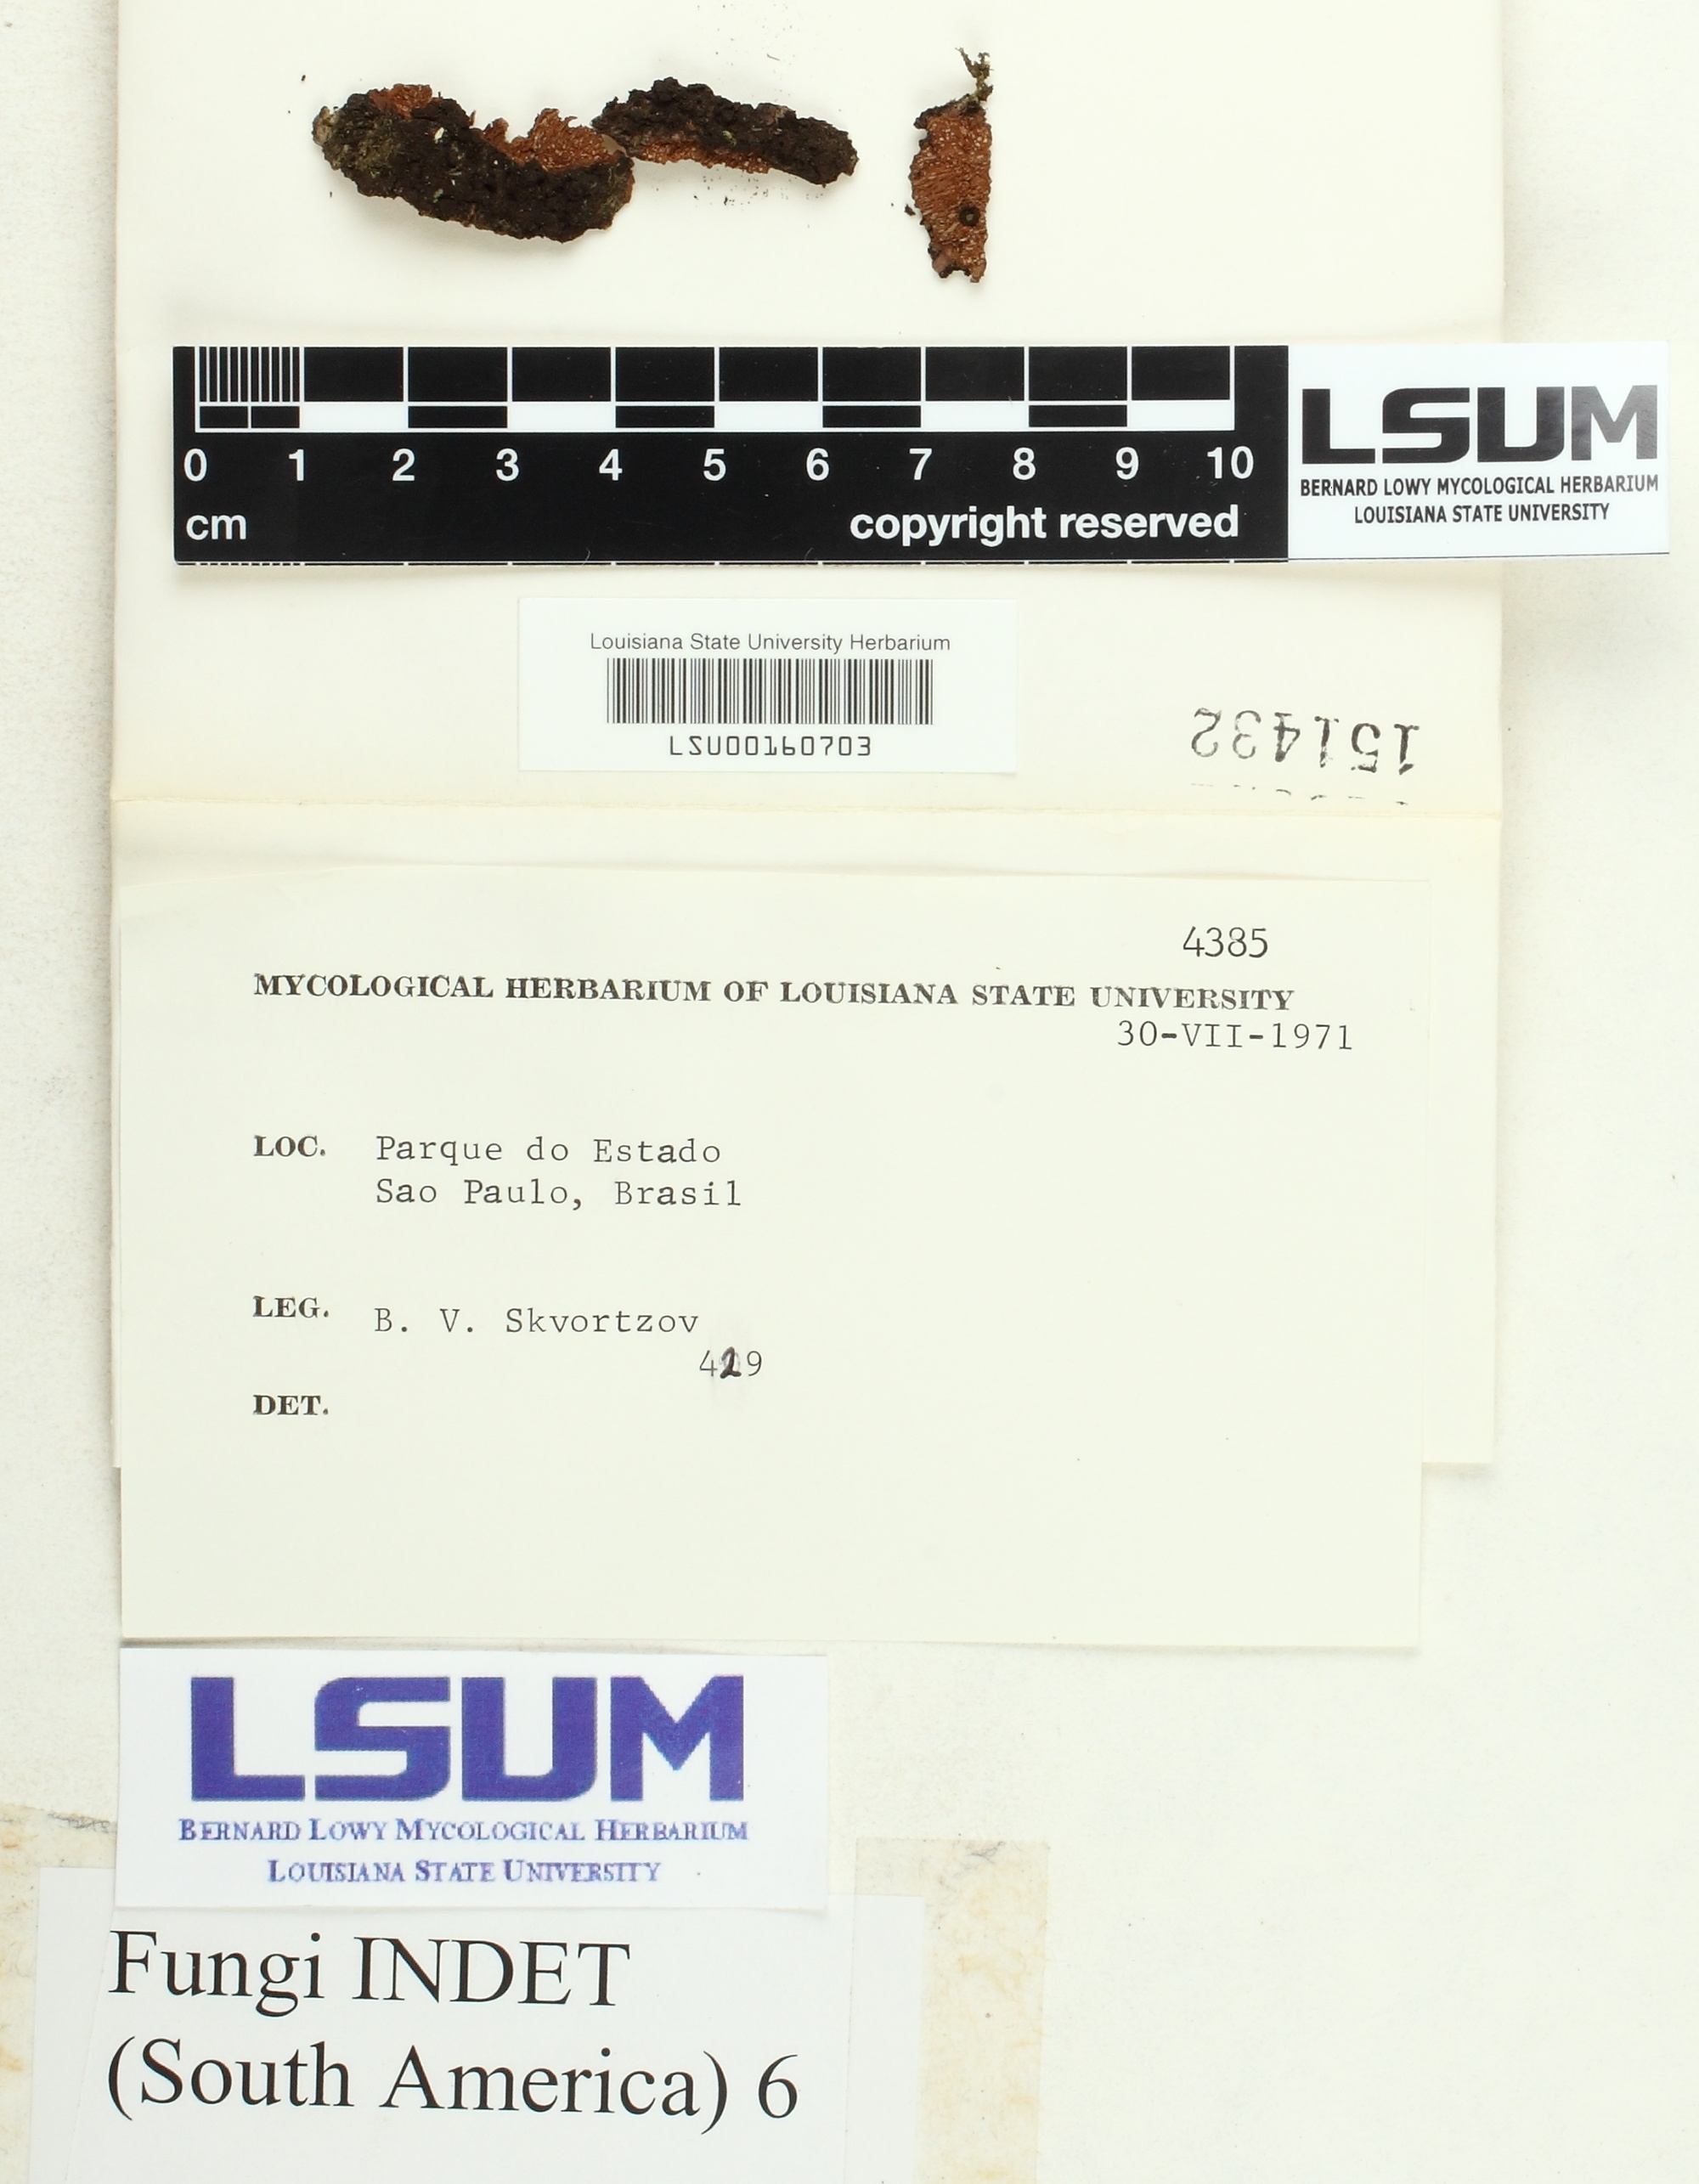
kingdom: Fungi
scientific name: Fungi
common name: Fungi
